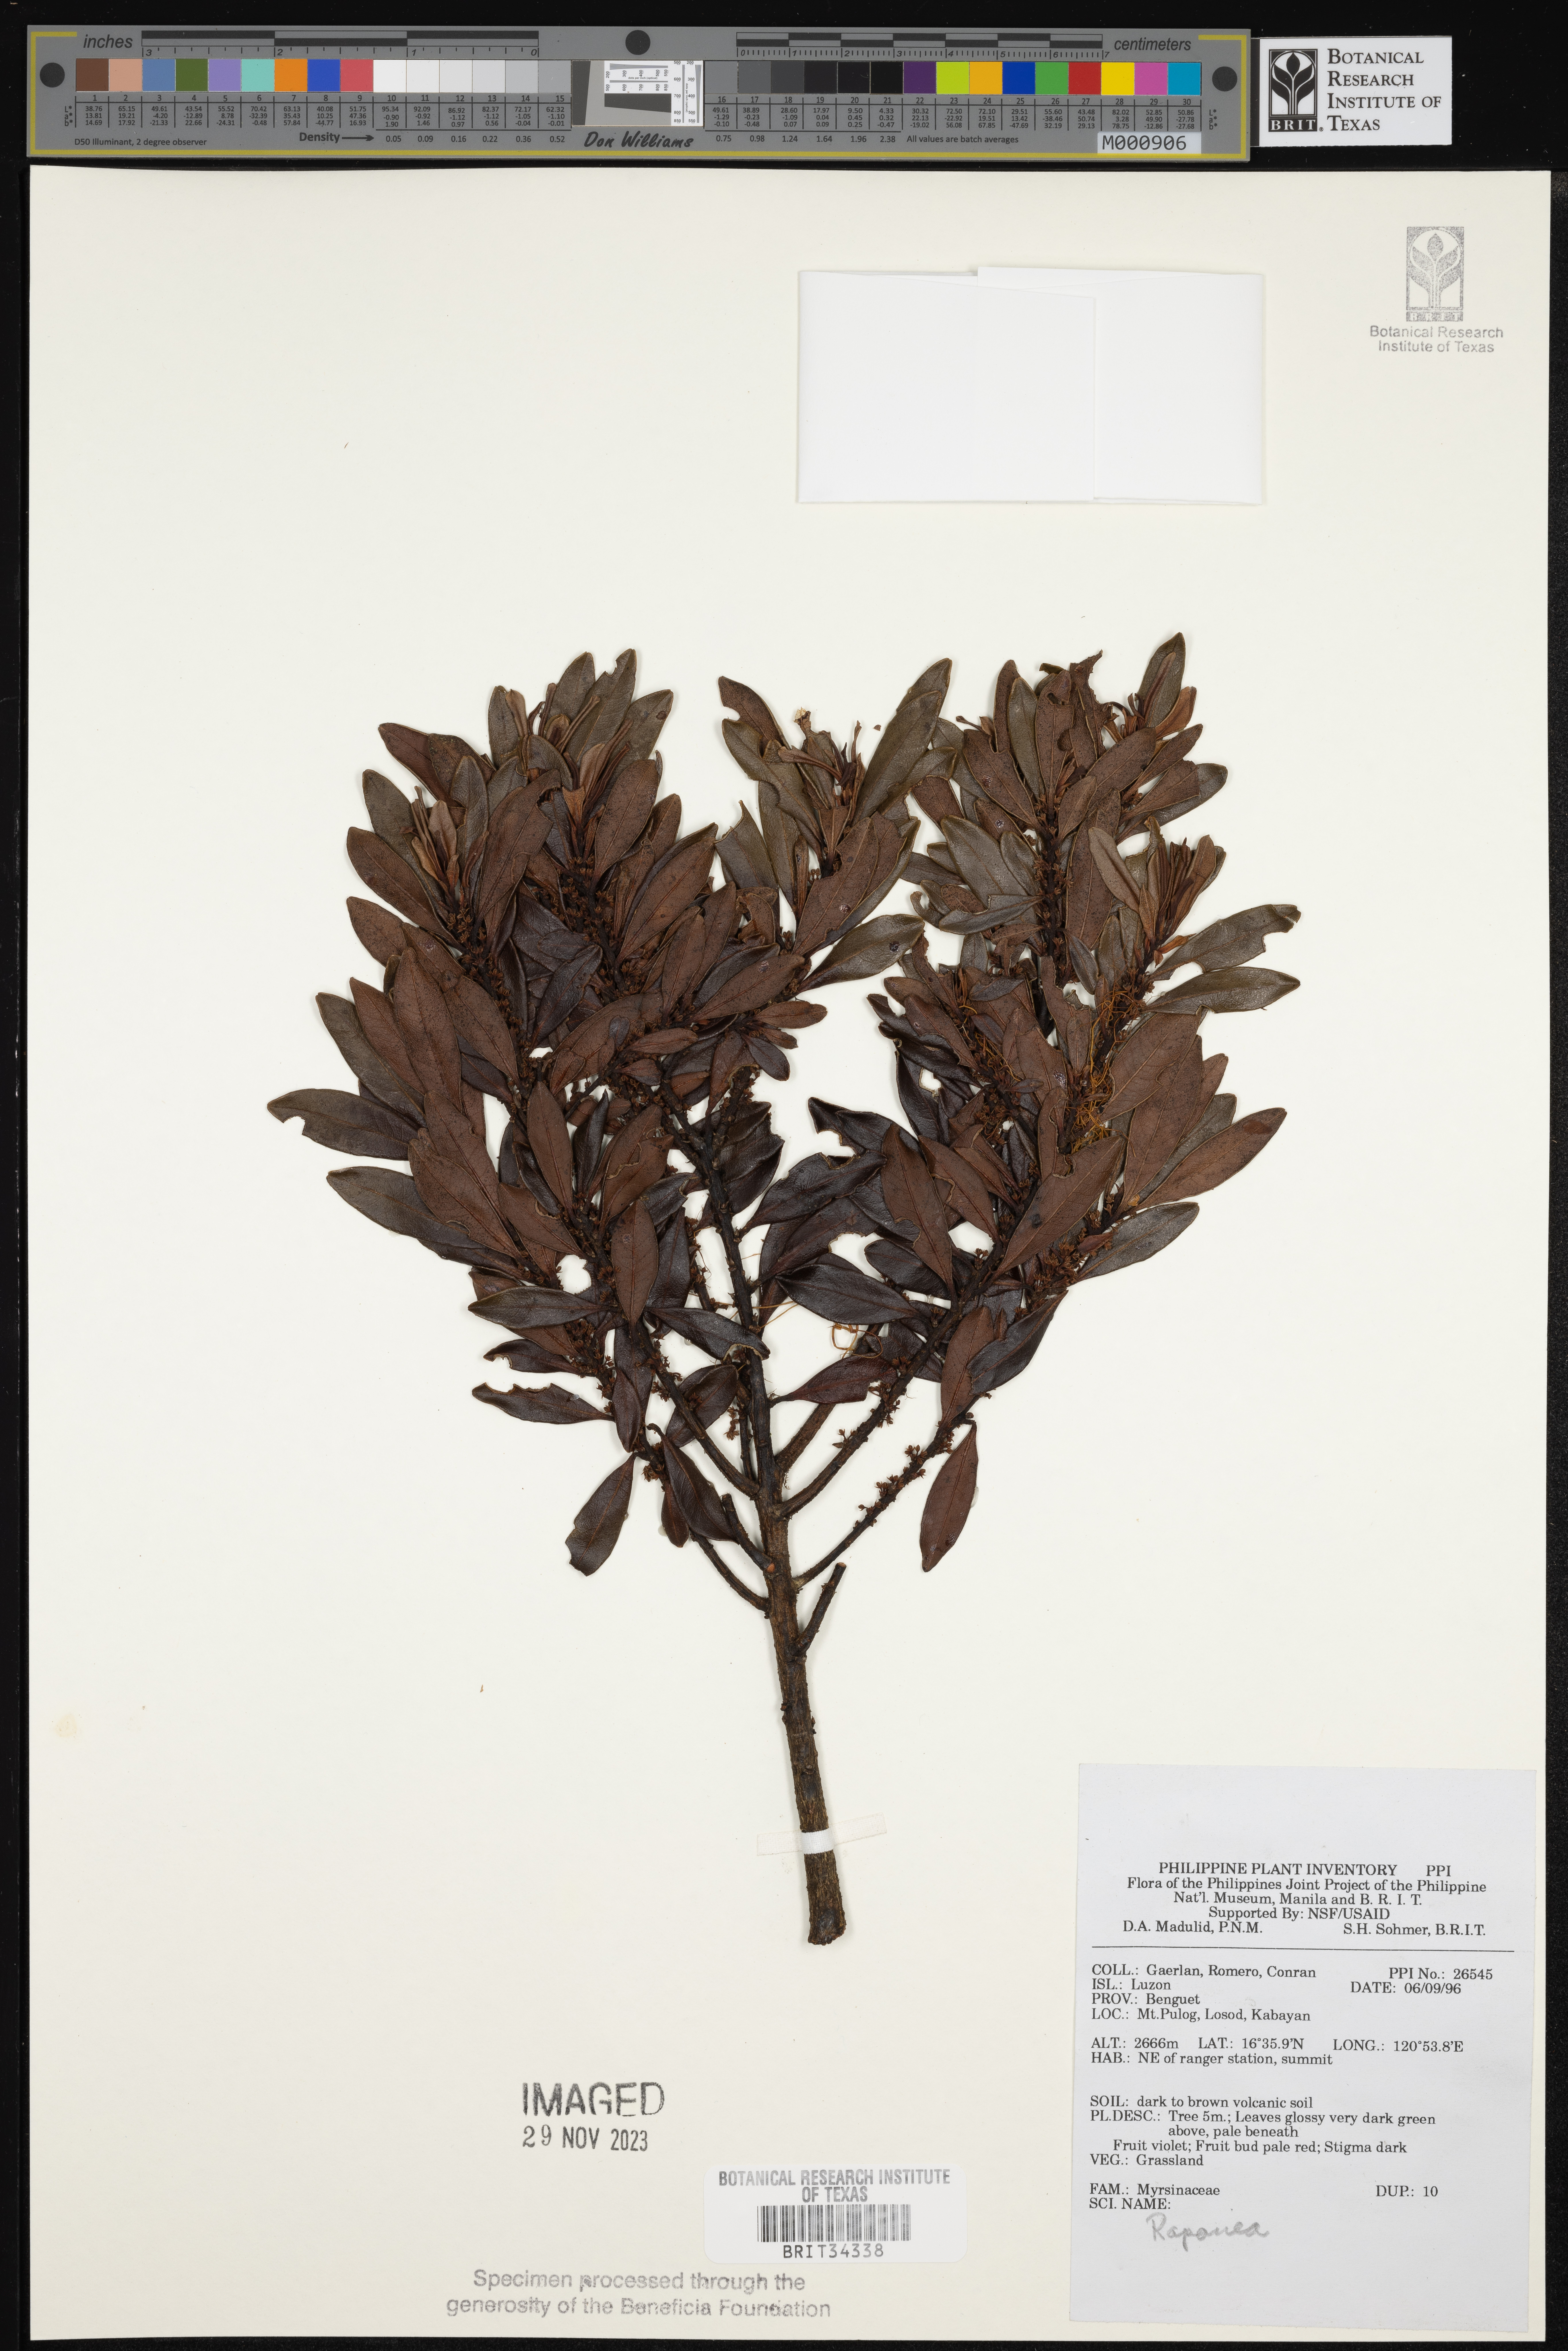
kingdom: Plantae
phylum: Tracheophyta
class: Magnoliopsida
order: Ericales
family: Primulaceae
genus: Myrsine
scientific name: Myrsine
